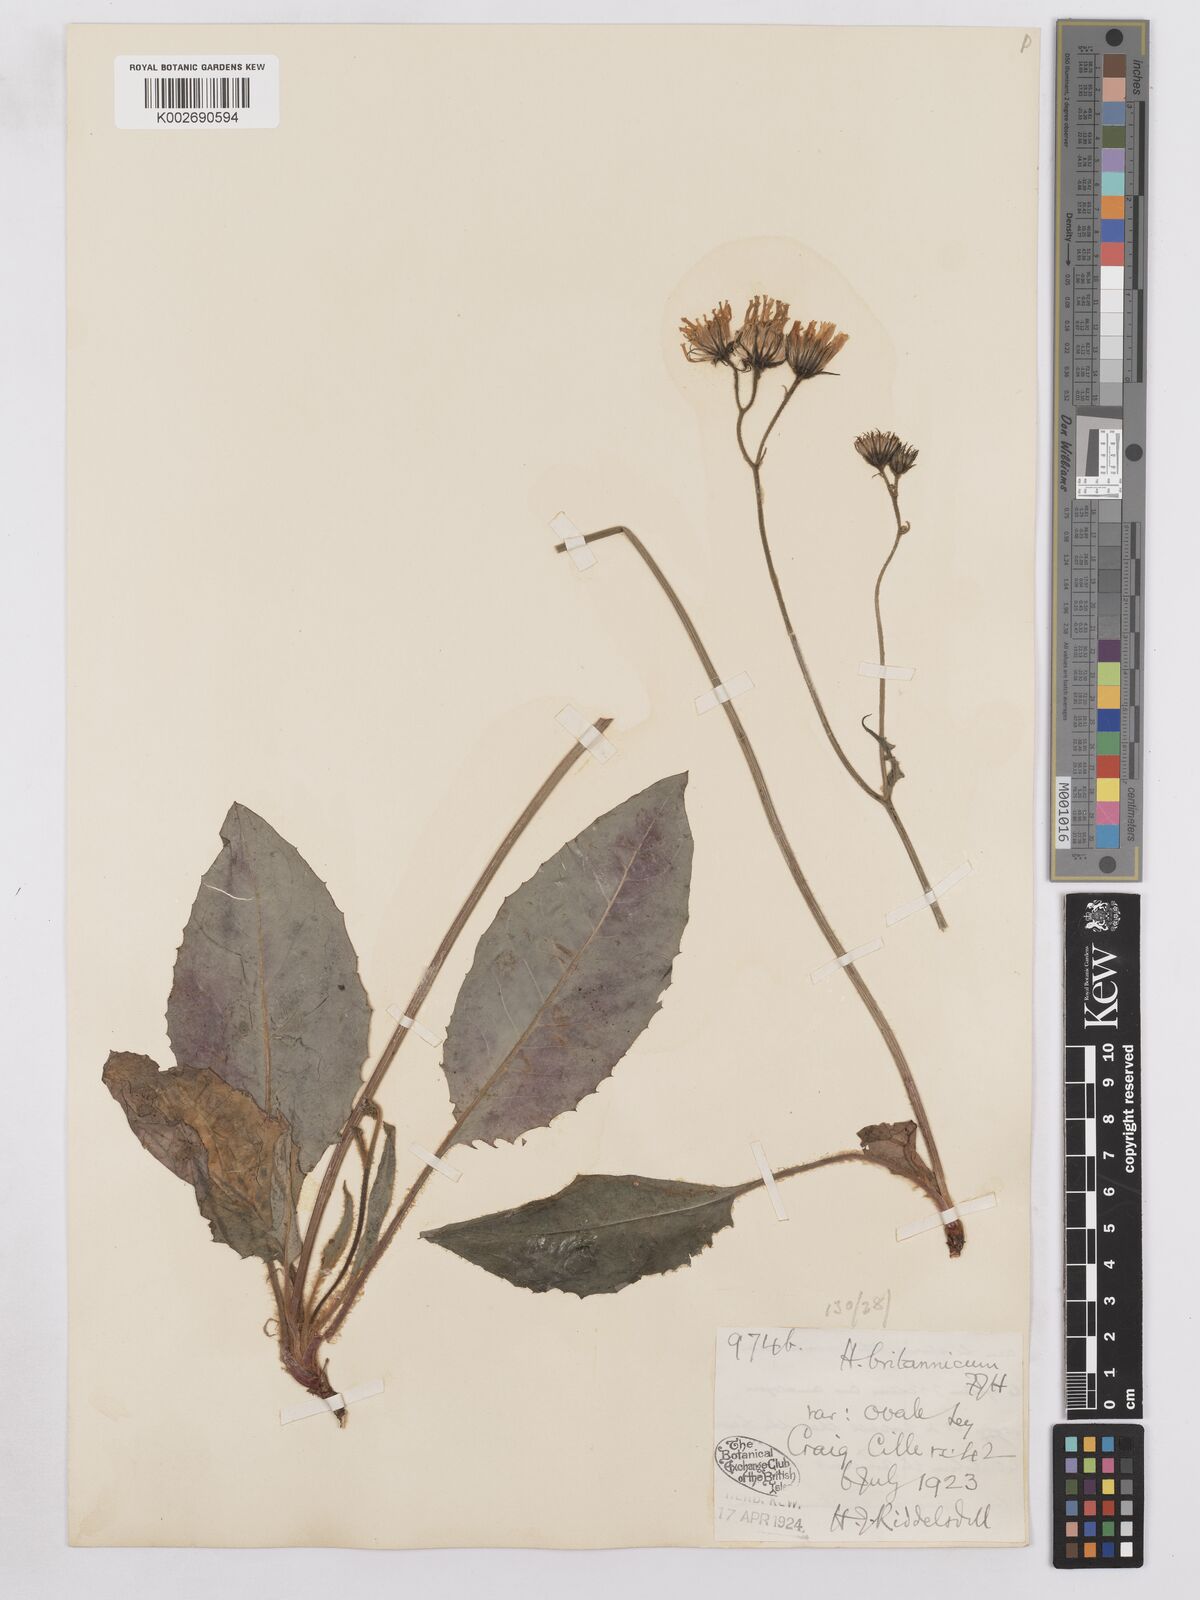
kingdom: Plantae
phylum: Tracheophyta
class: Magnoliopsida
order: Asterales
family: Asteraceae
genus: Hieracium
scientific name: Hieracium breconense
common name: Brecon hawkweed
